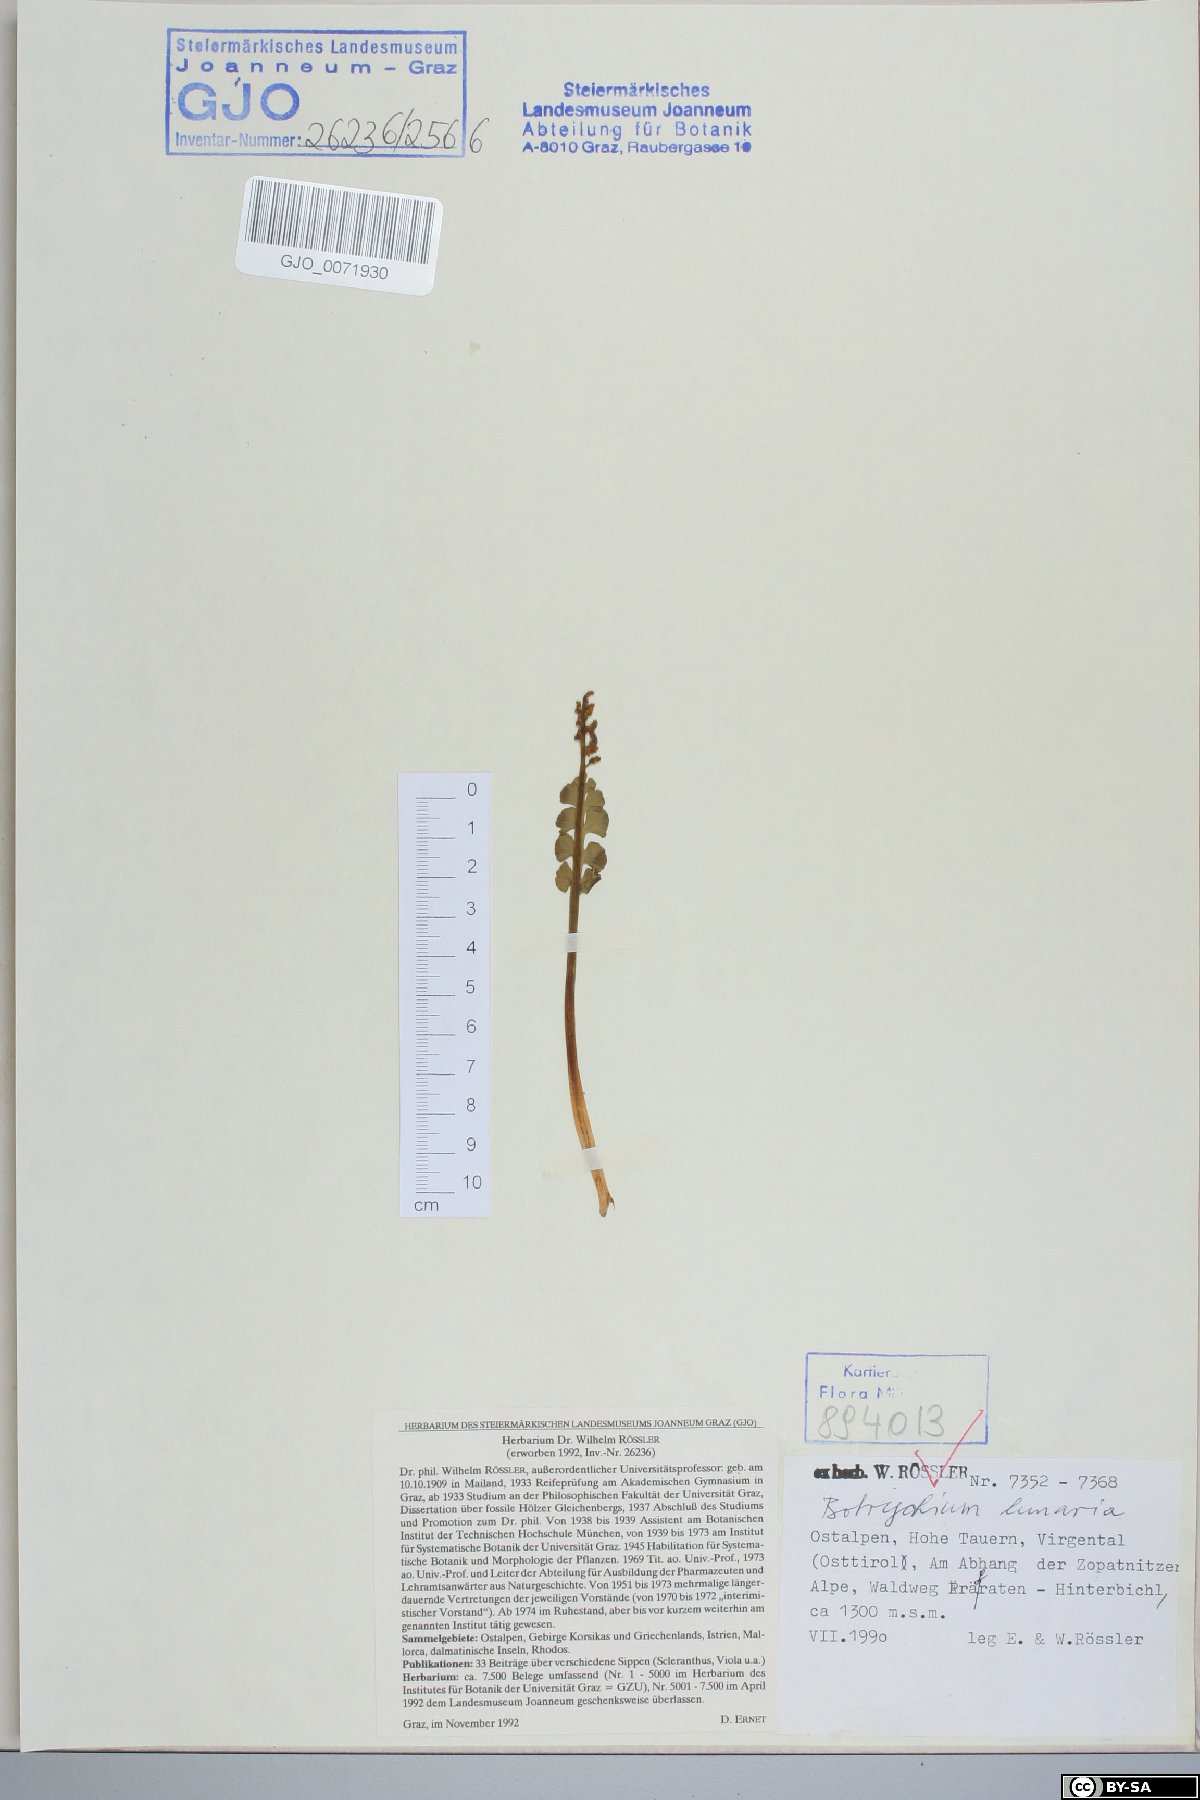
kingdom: Plantae
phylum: Tracheophyta
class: Polypodiopsida
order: Ophioglossales
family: Ophioglossaceae
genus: Botrychium
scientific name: Botrychium lunaria
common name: Moonwort
